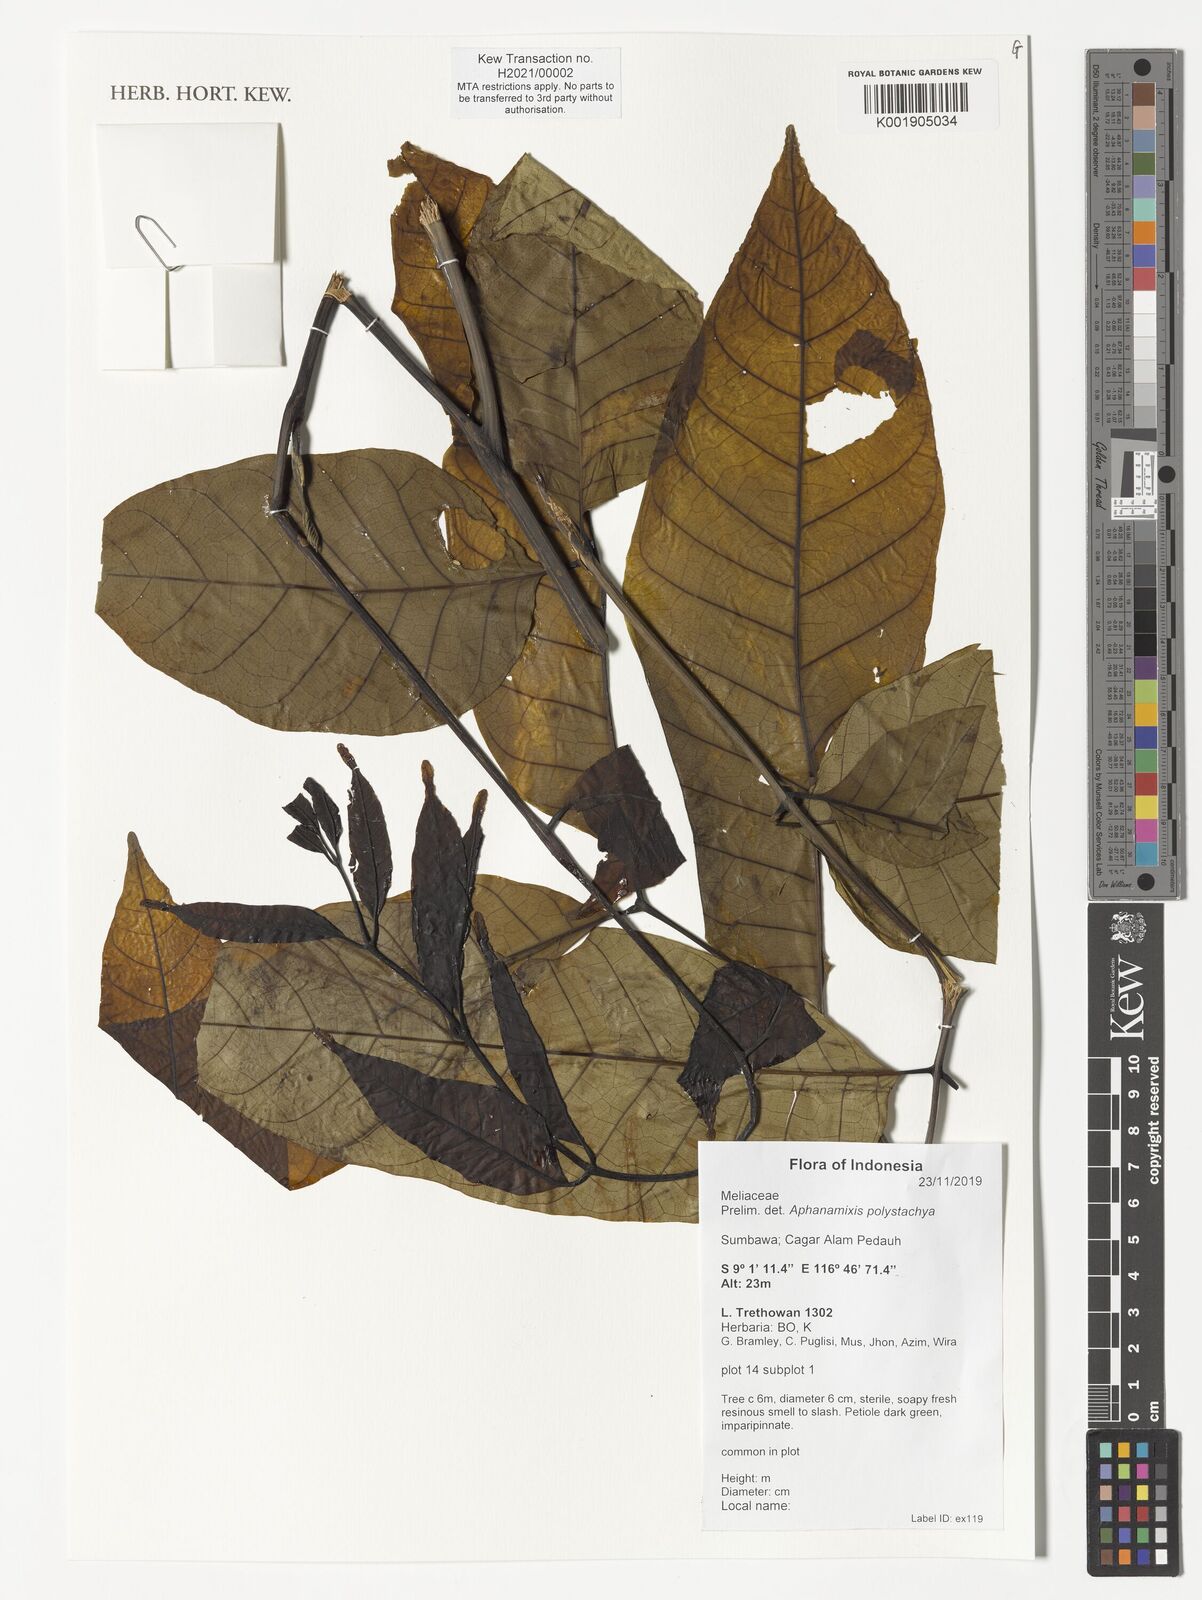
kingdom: Plantae
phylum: Tracheophyta
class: Magnoliopsida
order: Sapindales
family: Meliaceae
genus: Aphanamixis
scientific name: Aphanamixis polystachya
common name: Pithraj tree
